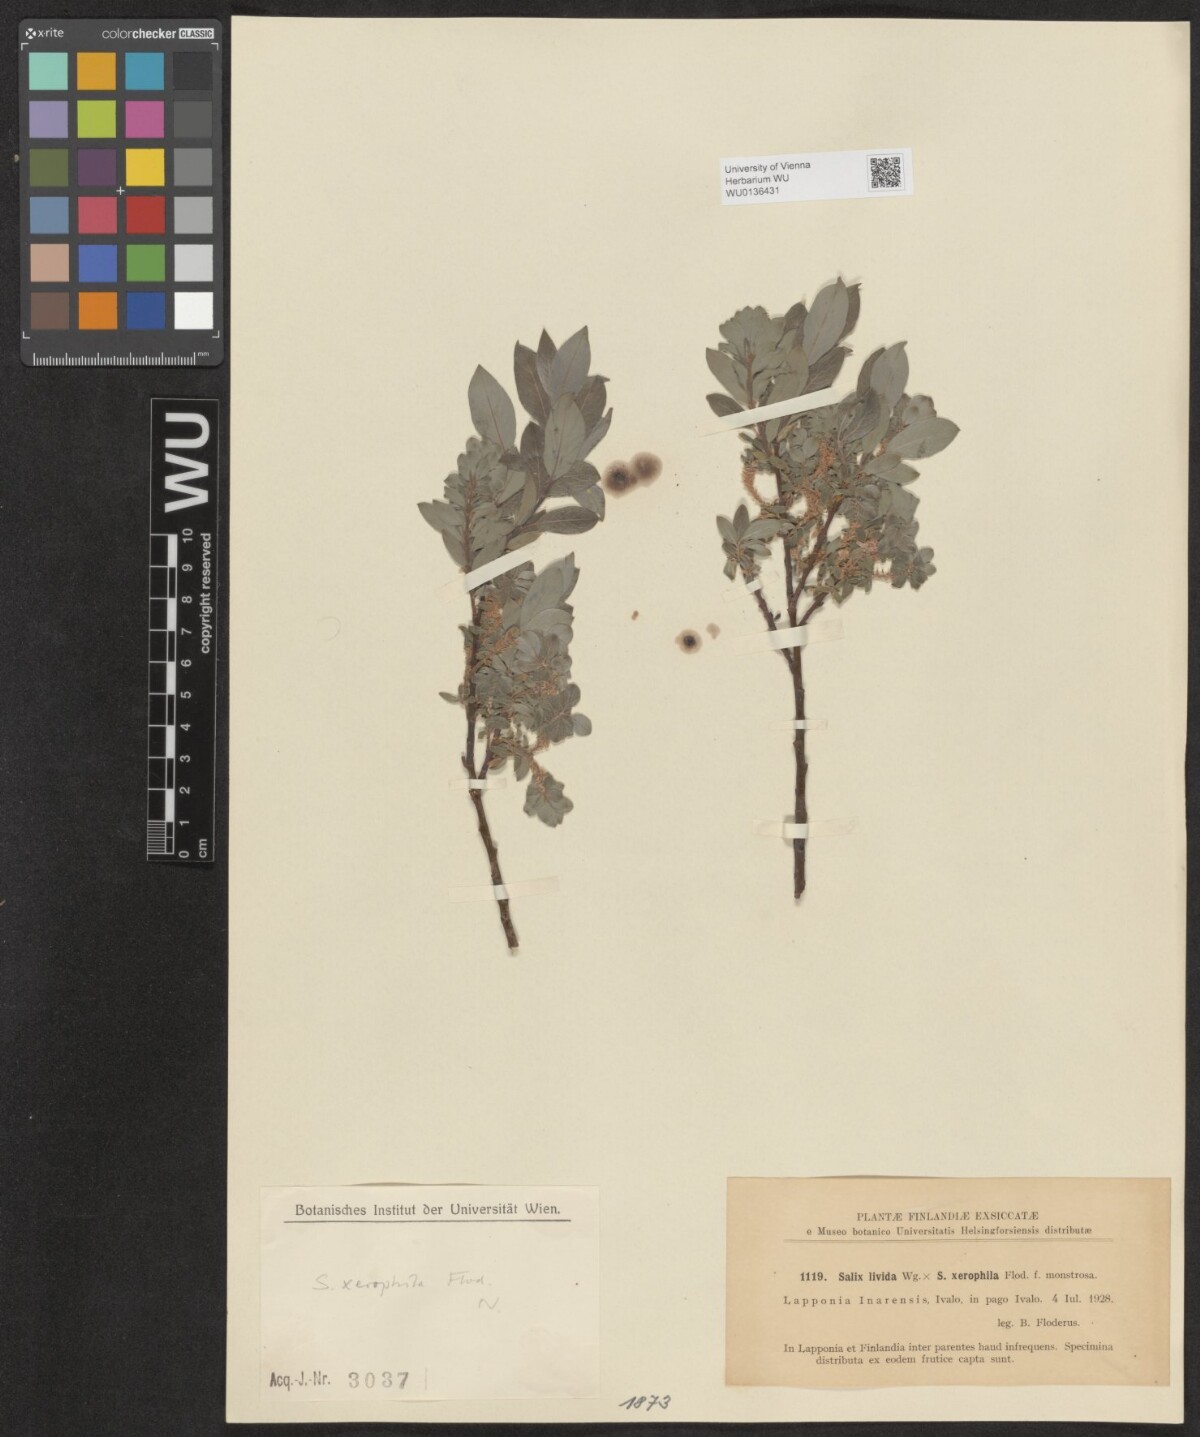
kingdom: Plantae
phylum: Tracheophyta
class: Magnoliopsida
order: Malpighiales
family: Salicaceae
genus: Salix
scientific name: Salix lanata
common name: Woolly willow
